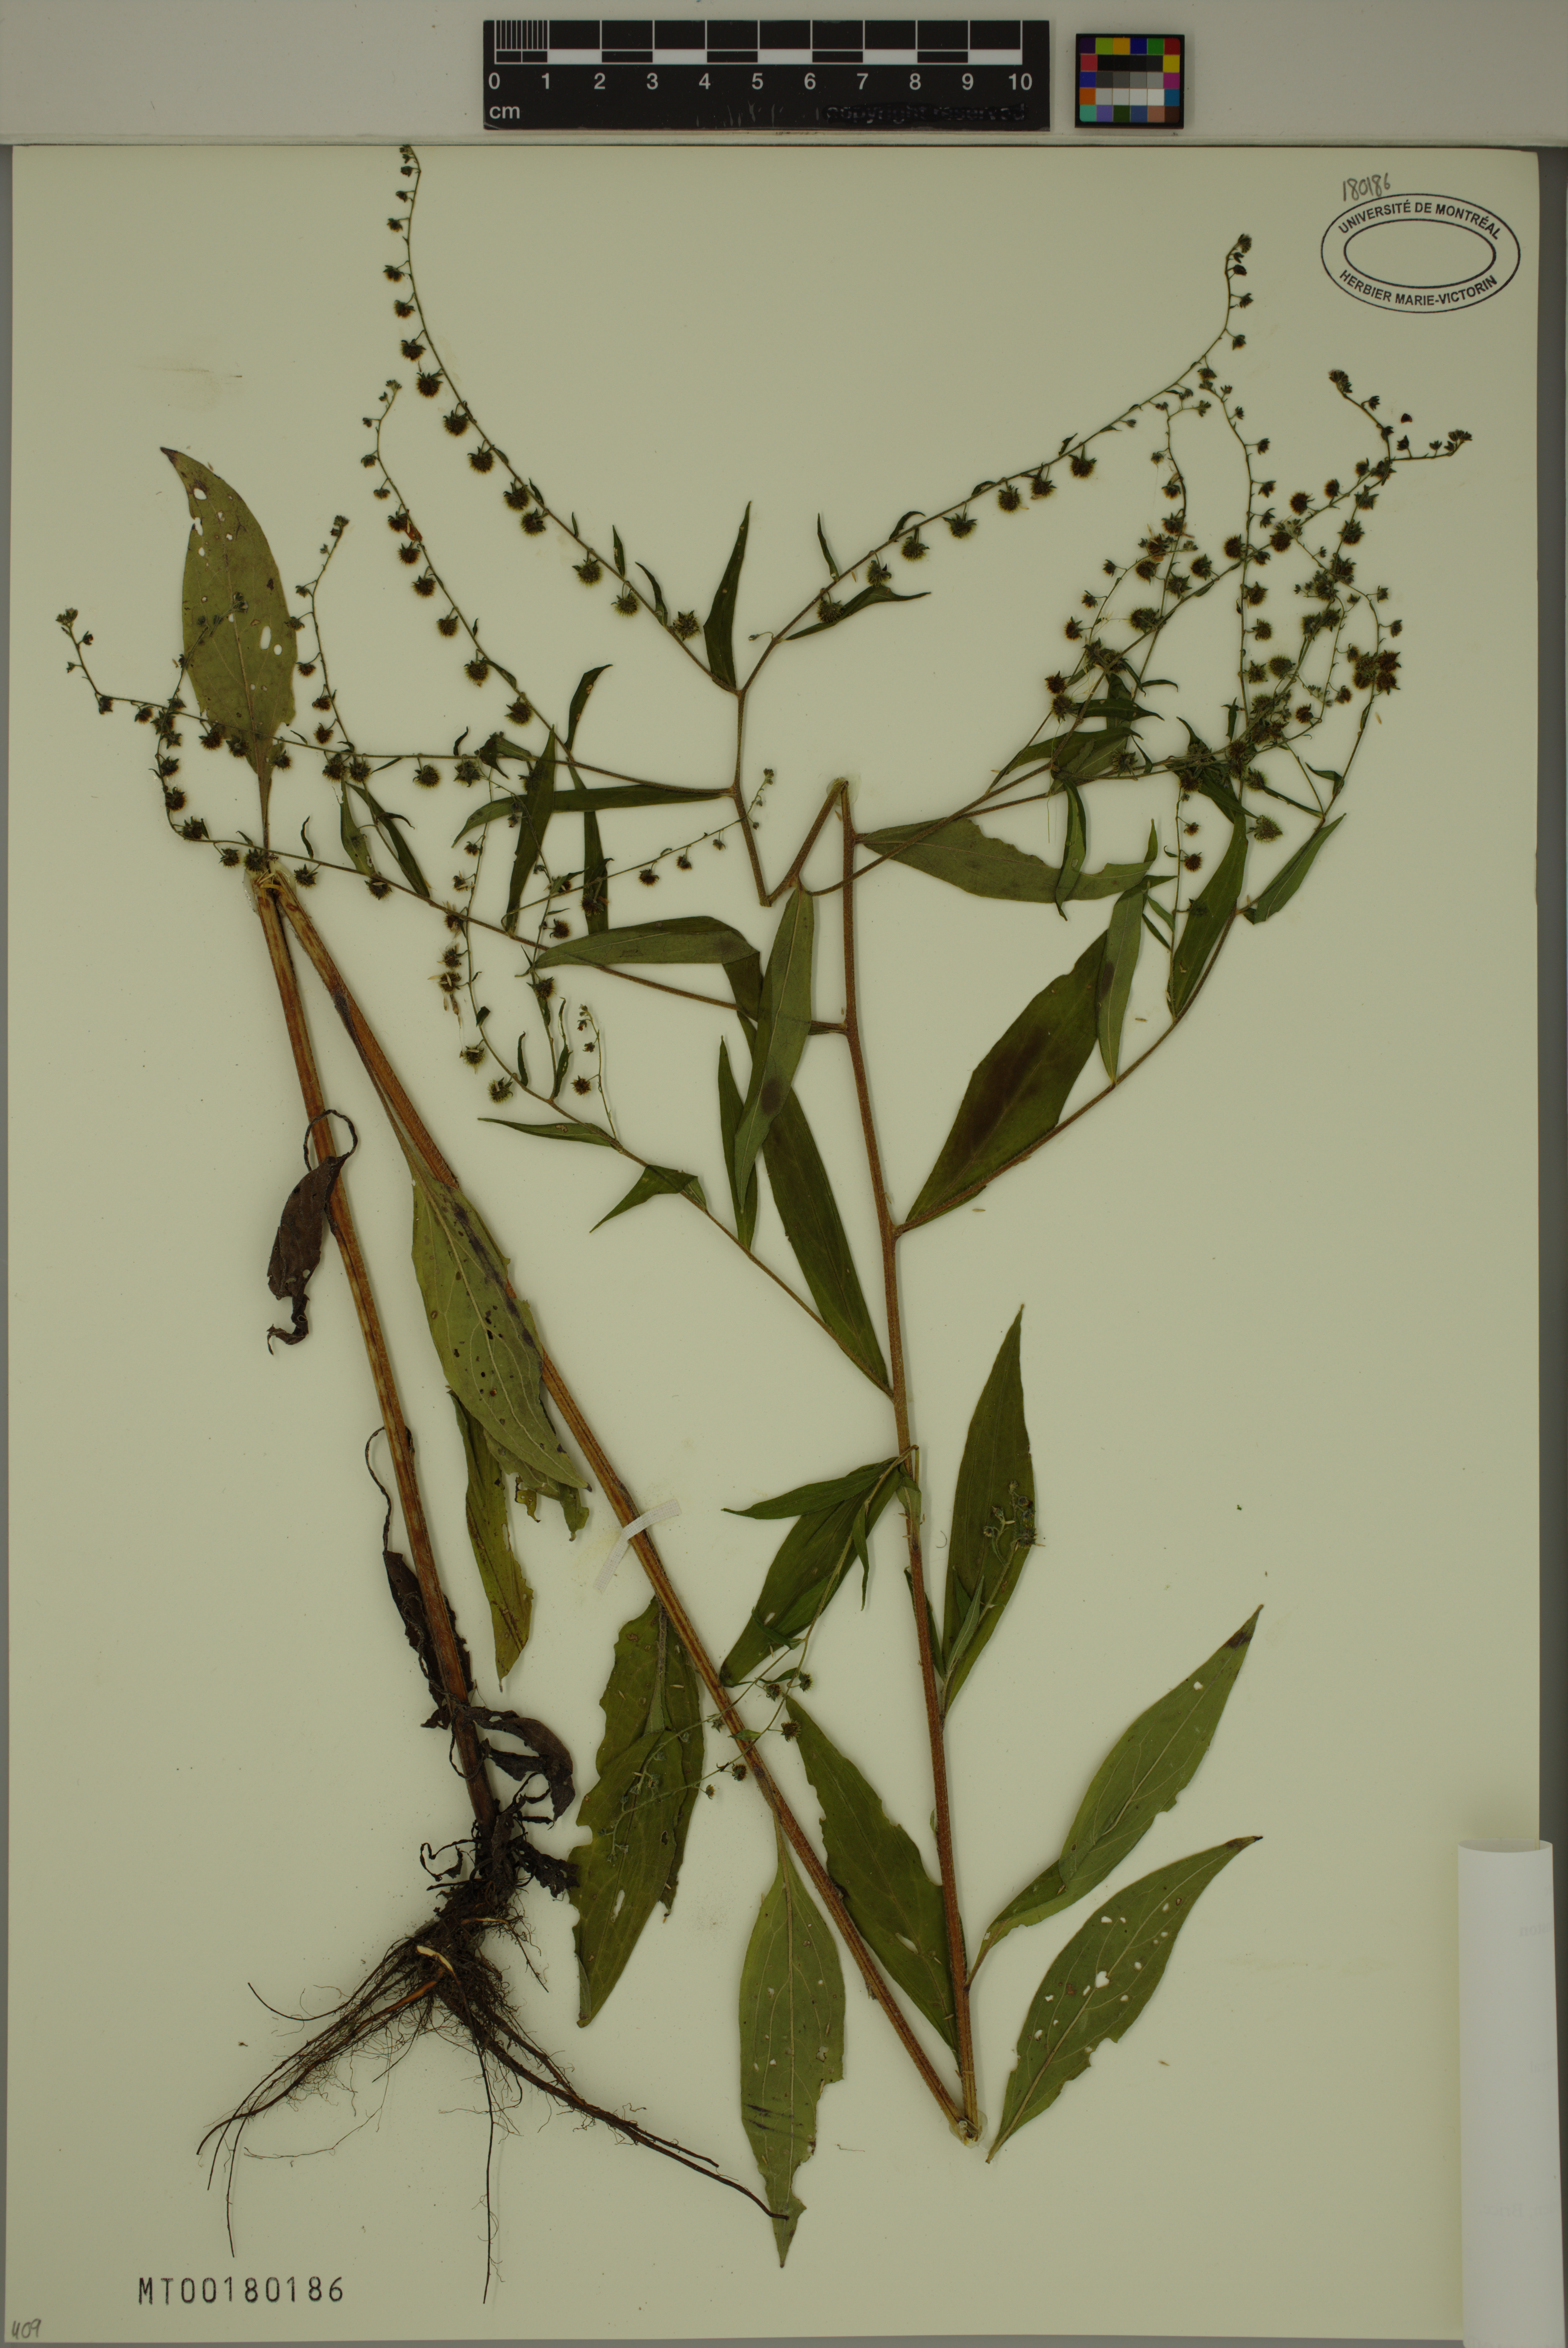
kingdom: Plantae
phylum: Tracheophyta
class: Magnoliopsida
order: Boraginales
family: Boraginaceae
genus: Hackelia
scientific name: Hackelia virginiana
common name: Beggar's-lice
